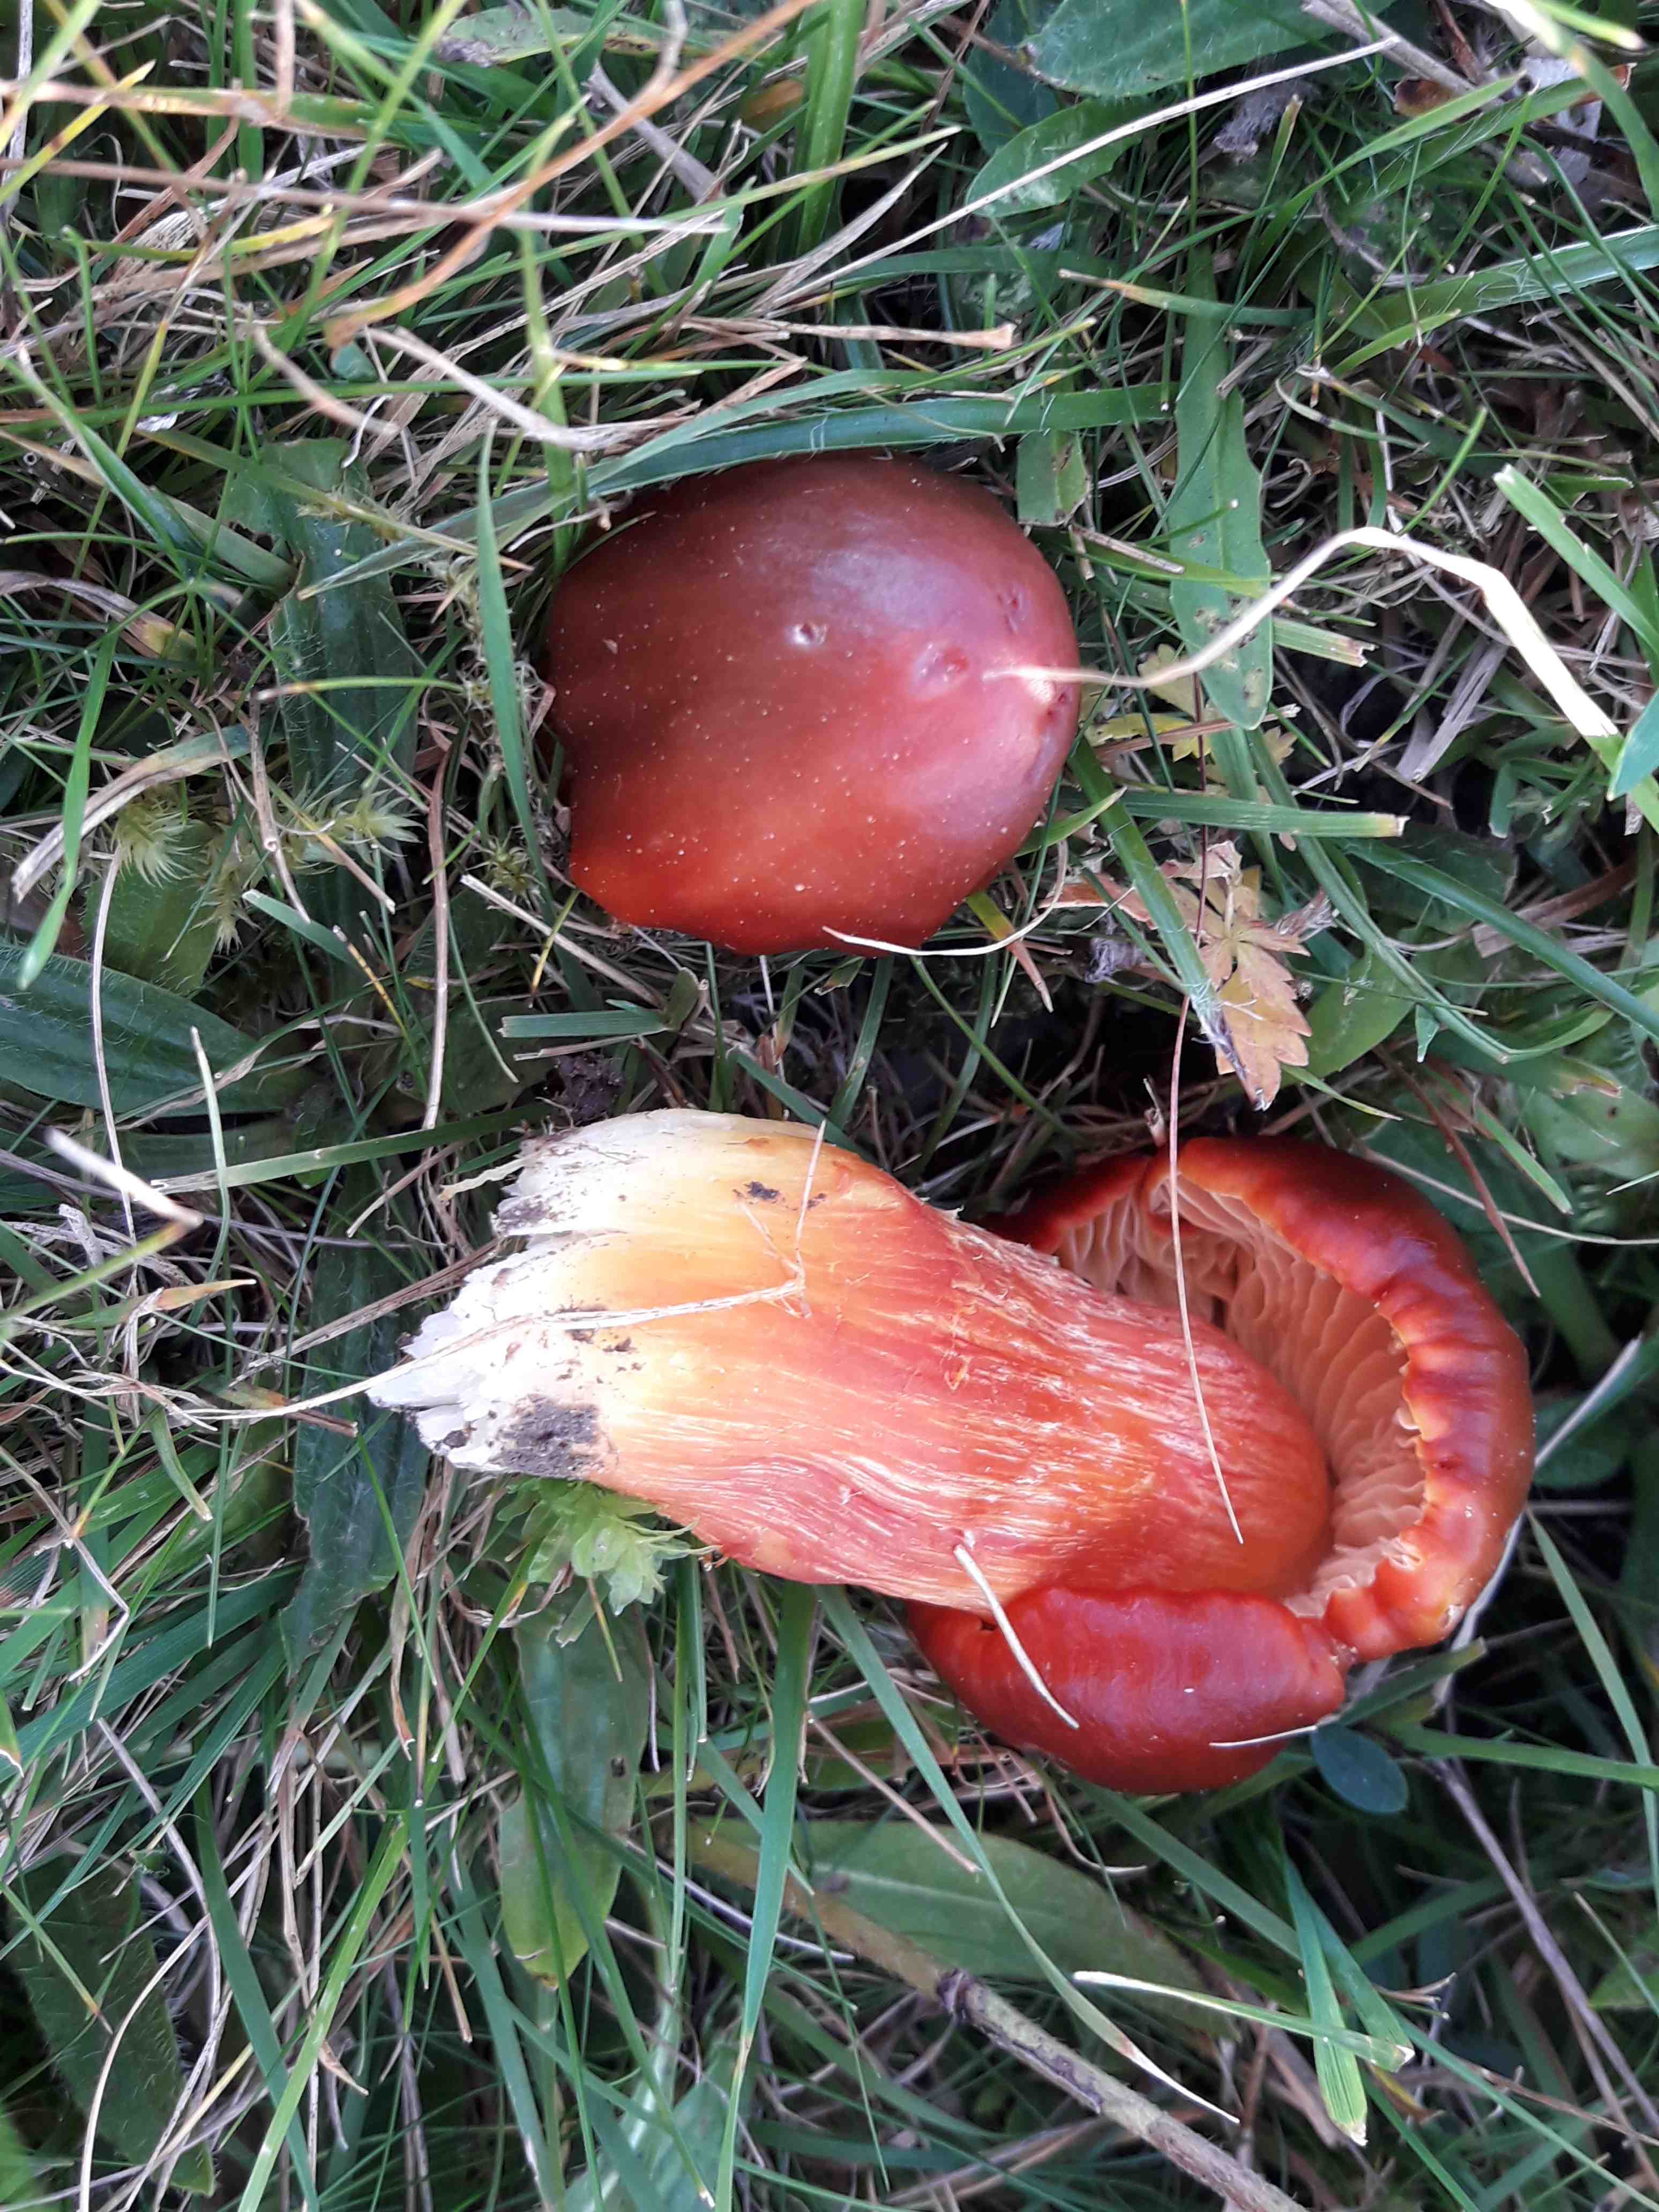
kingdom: Fungi
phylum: Basidiomycota
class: Agaricomycetes
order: Agaricales
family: Hygrophoraceae
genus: Hygrocybe
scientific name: Hygrocybe punicea
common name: skarlagen-vokshat
